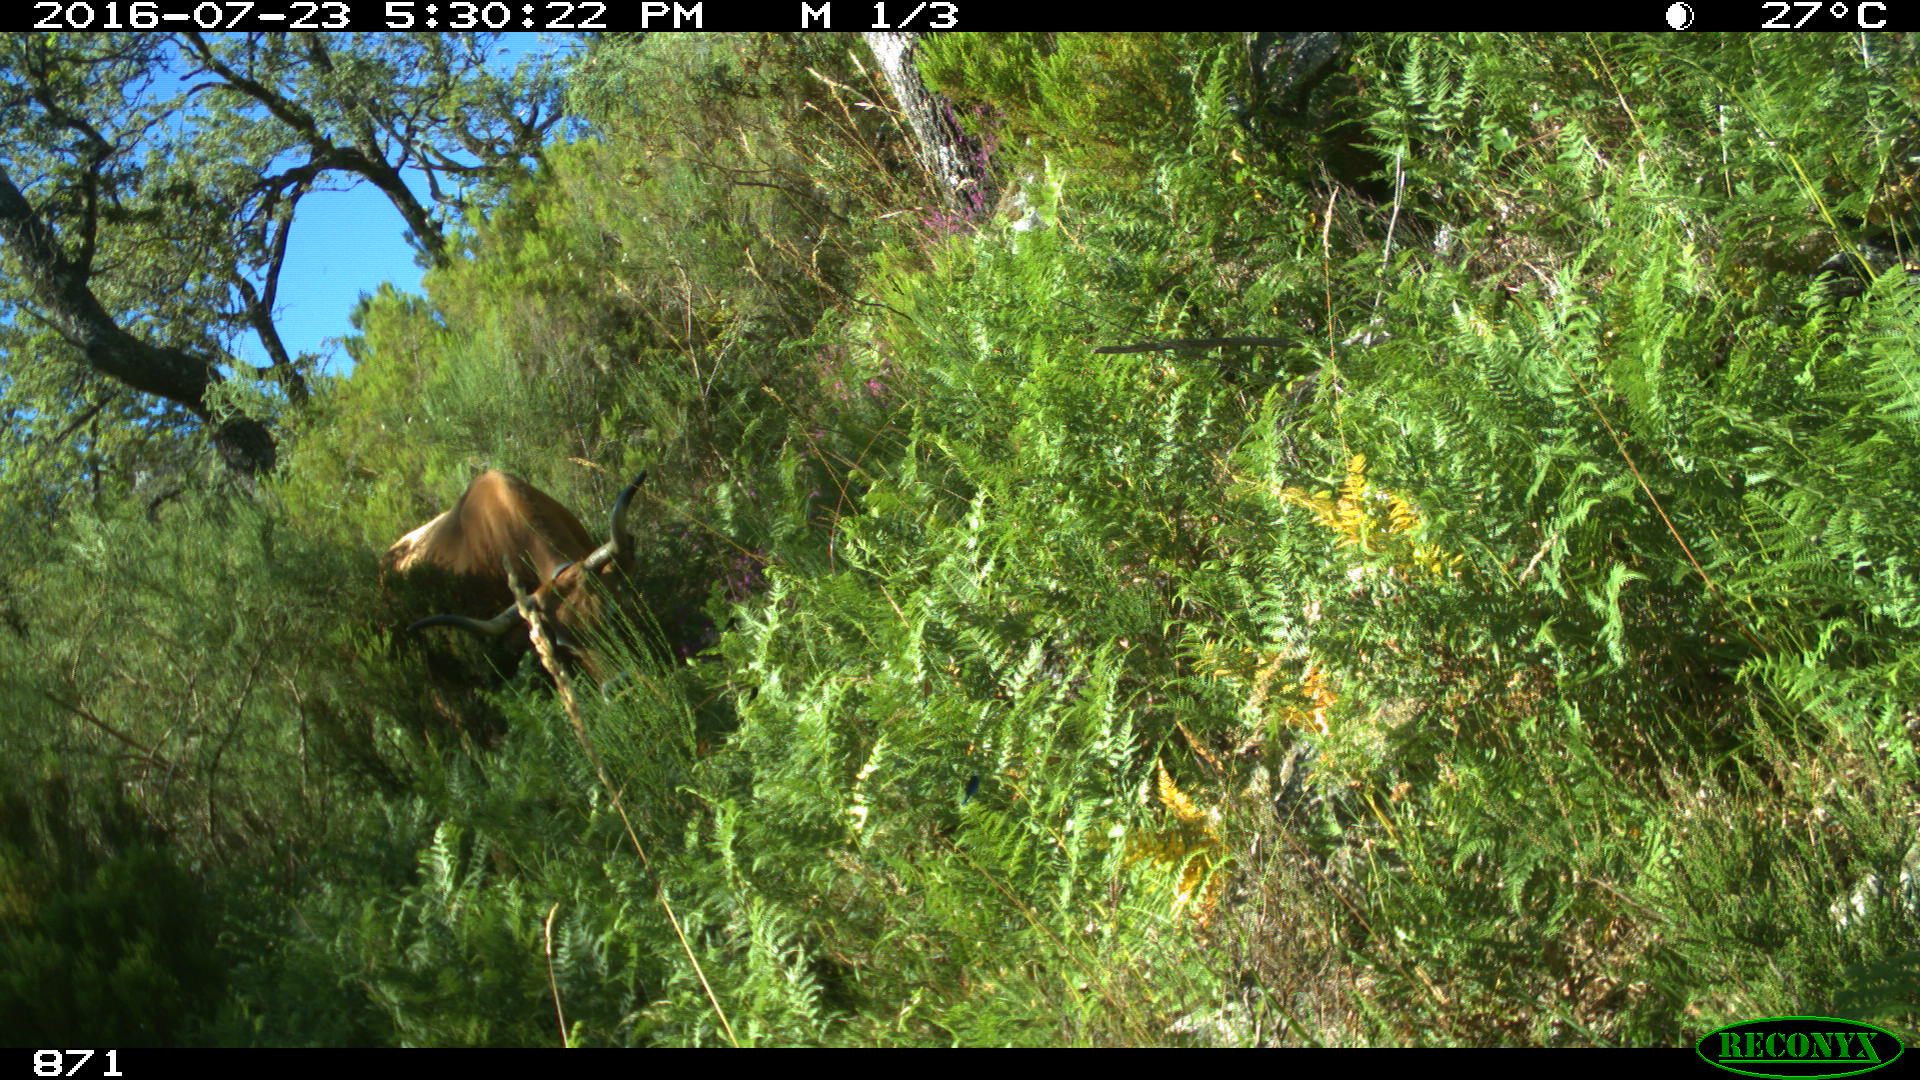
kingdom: Animalia
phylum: Chordata
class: Mammalia
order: Artiodactyla
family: Bovidae
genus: Bos
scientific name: Bos taurus
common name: Domesticated cattle
